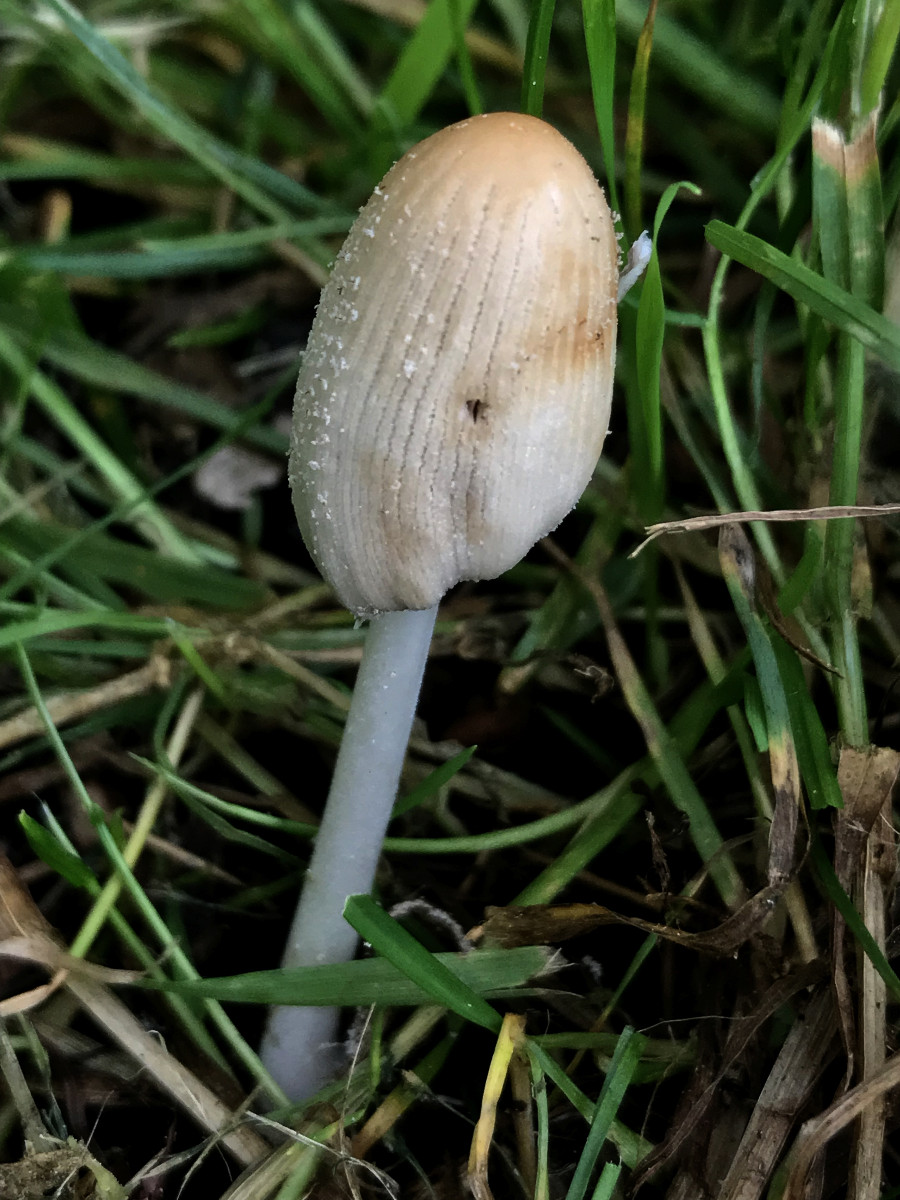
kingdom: Fungi
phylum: Basidiomycota
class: Agaricomycetes
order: Agaricales
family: Psathyrellaceae
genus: Coprinellus
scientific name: Coprinellus
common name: blækhat
